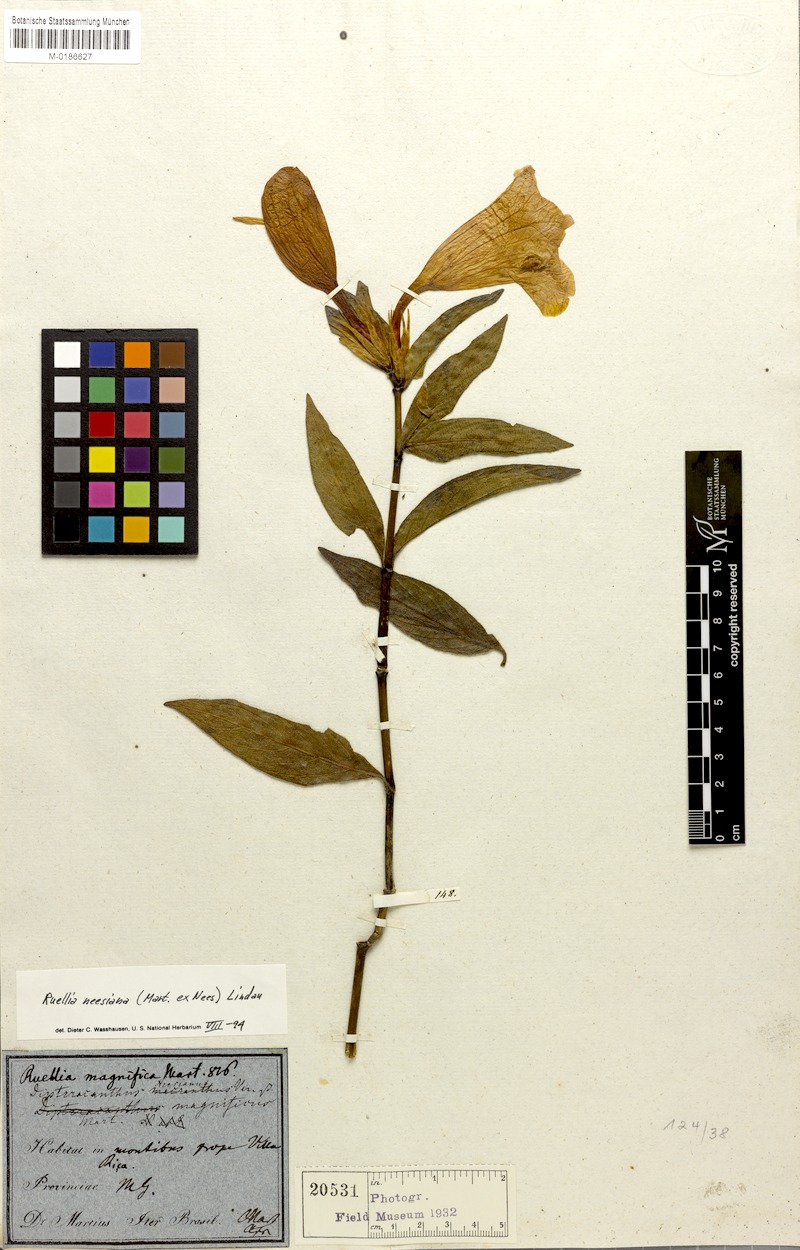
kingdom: Plantae
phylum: Tracheophyta
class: Magnoliopsida
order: Lamiales
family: Acanthaceae
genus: Ruellia
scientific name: Ruellia neesiana
